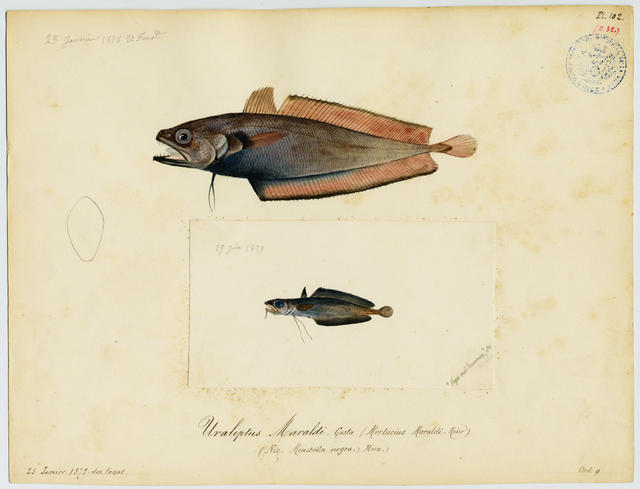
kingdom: Animalia
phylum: Chordata
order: Gadiformes
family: Moridae
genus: Gadella
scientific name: Gadella maraldi
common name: Gadella
